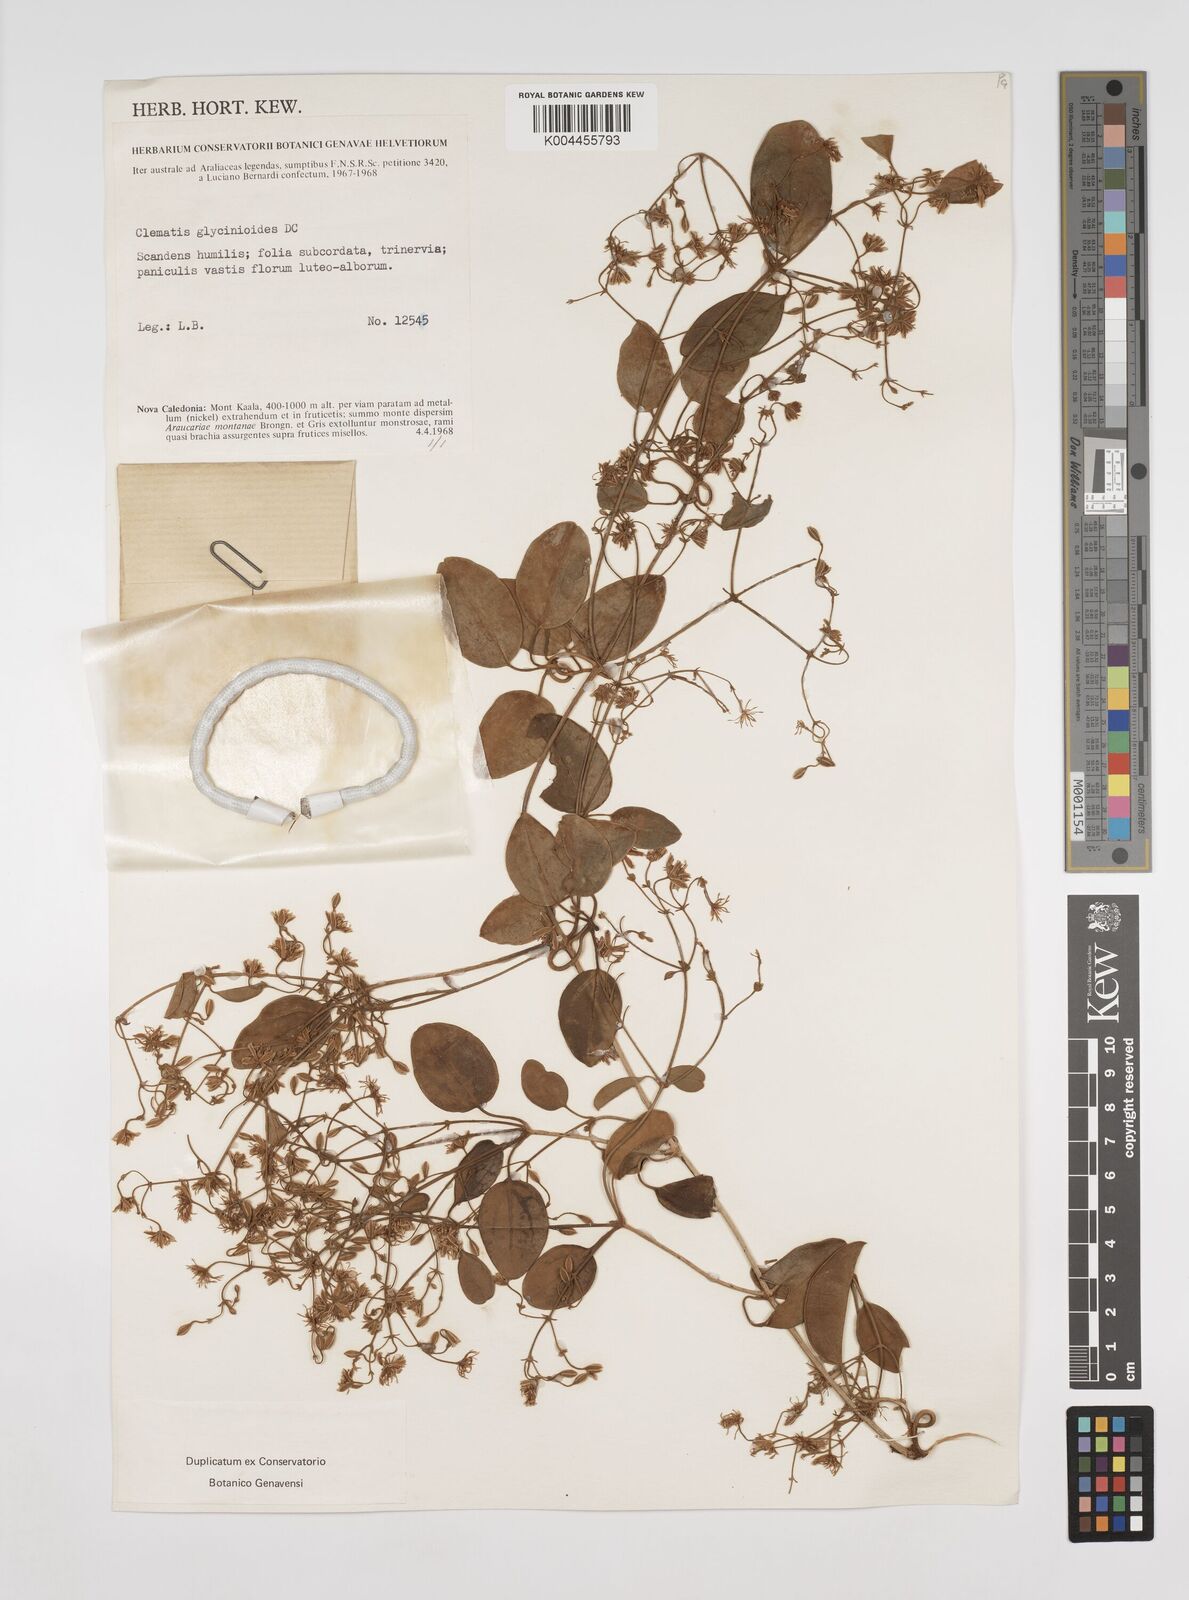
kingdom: Plantae
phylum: Tracheophyta
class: Magnoliopsida
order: Ranunculales
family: Ranunculaceae
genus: Clematis
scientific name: Clematis glycinoides
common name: Forest clematis
